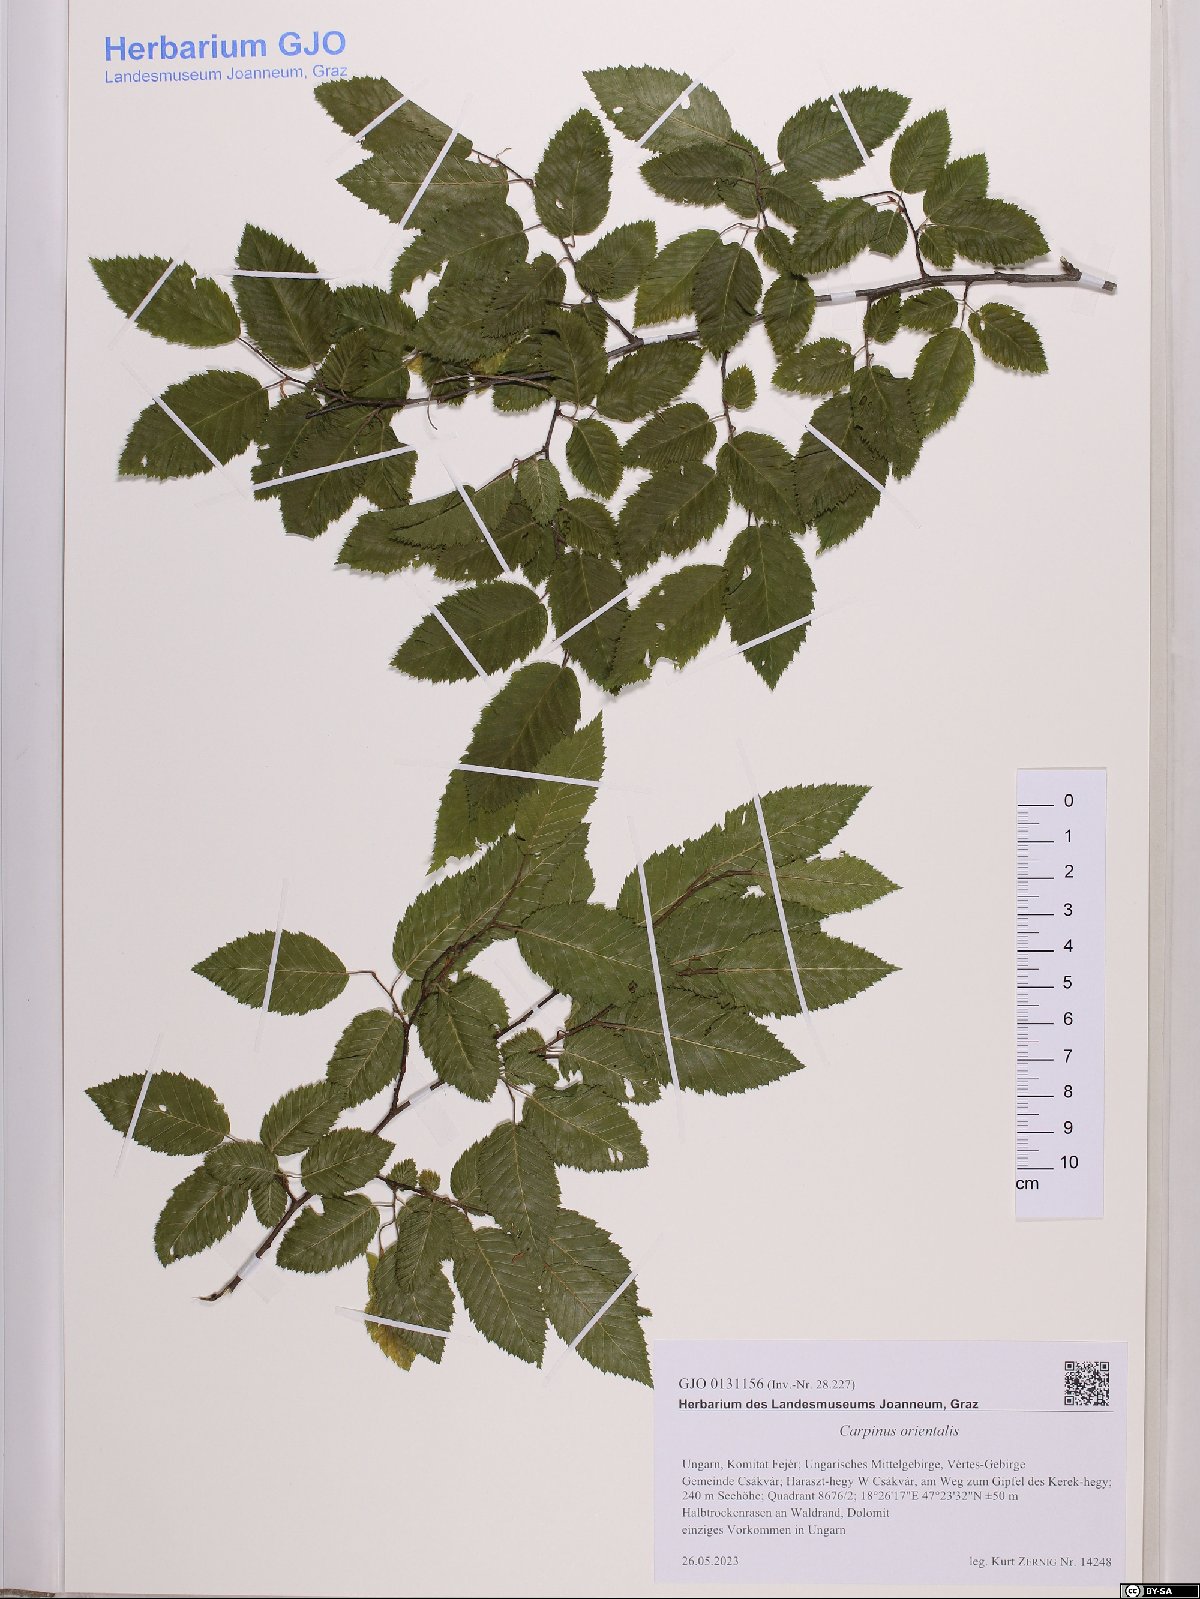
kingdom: Plantae
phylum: Tracheophyta
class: Magnoliopsida
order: Fagales
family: Betulaceae
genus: Carpinus
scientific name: Carpinus orientalis
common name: Eastern hornbeam
